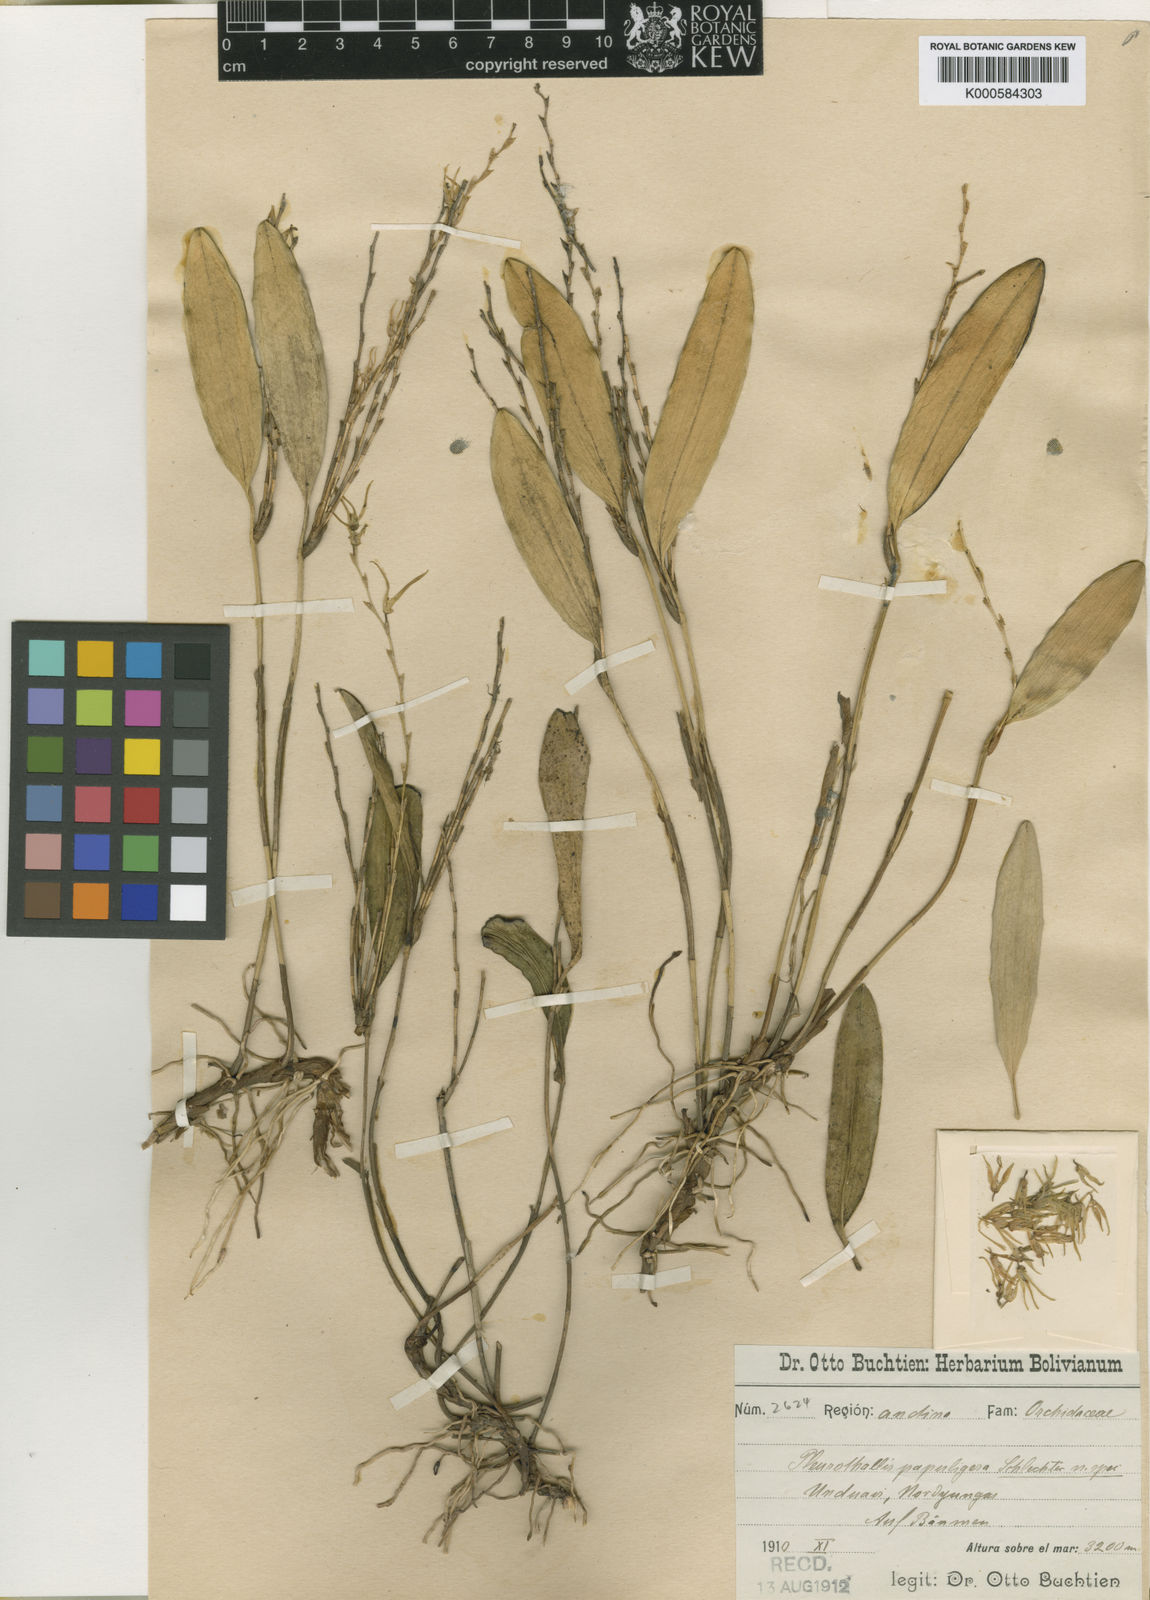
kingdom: Plantae
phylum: Tracheophyta
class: Liliopsida
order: Asparagales
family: Orchidaceae
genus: Stelis
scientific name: Stelis papuligera
